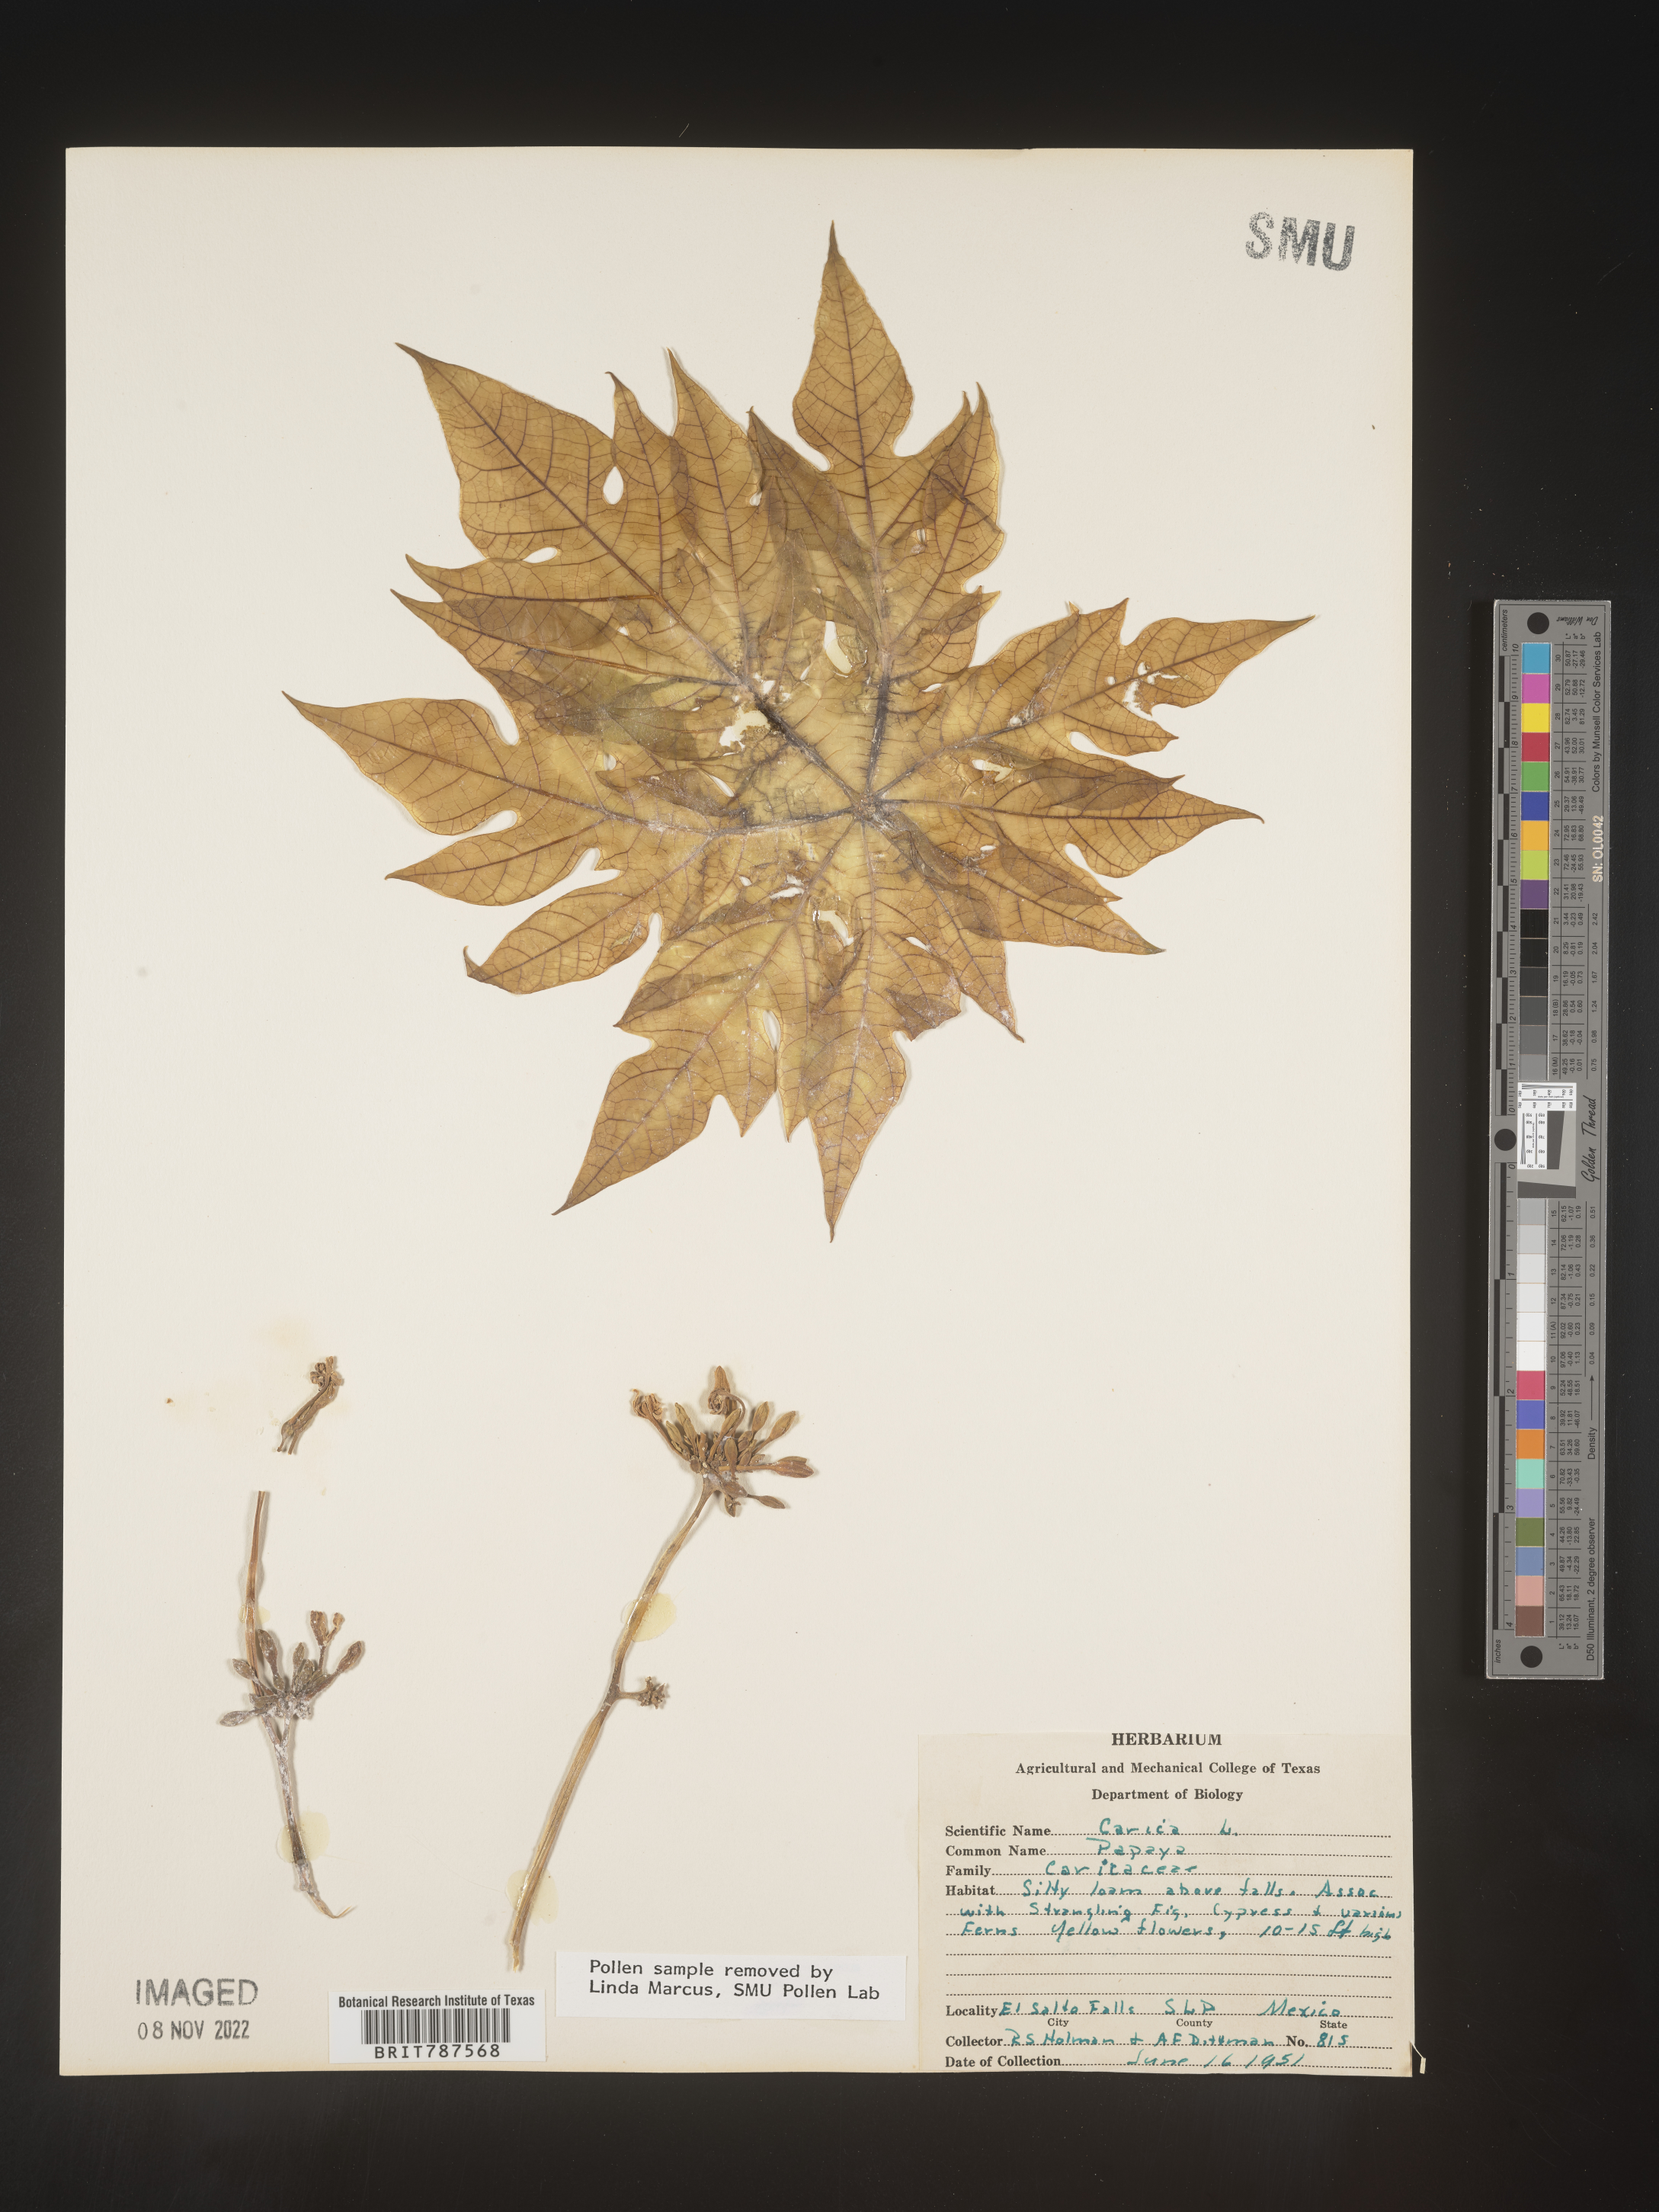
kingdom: Plantae
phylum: Tracheophyta
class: Magnoliopsida
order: Brassicales
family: Caricaceae
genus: Carica
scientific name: Carica
